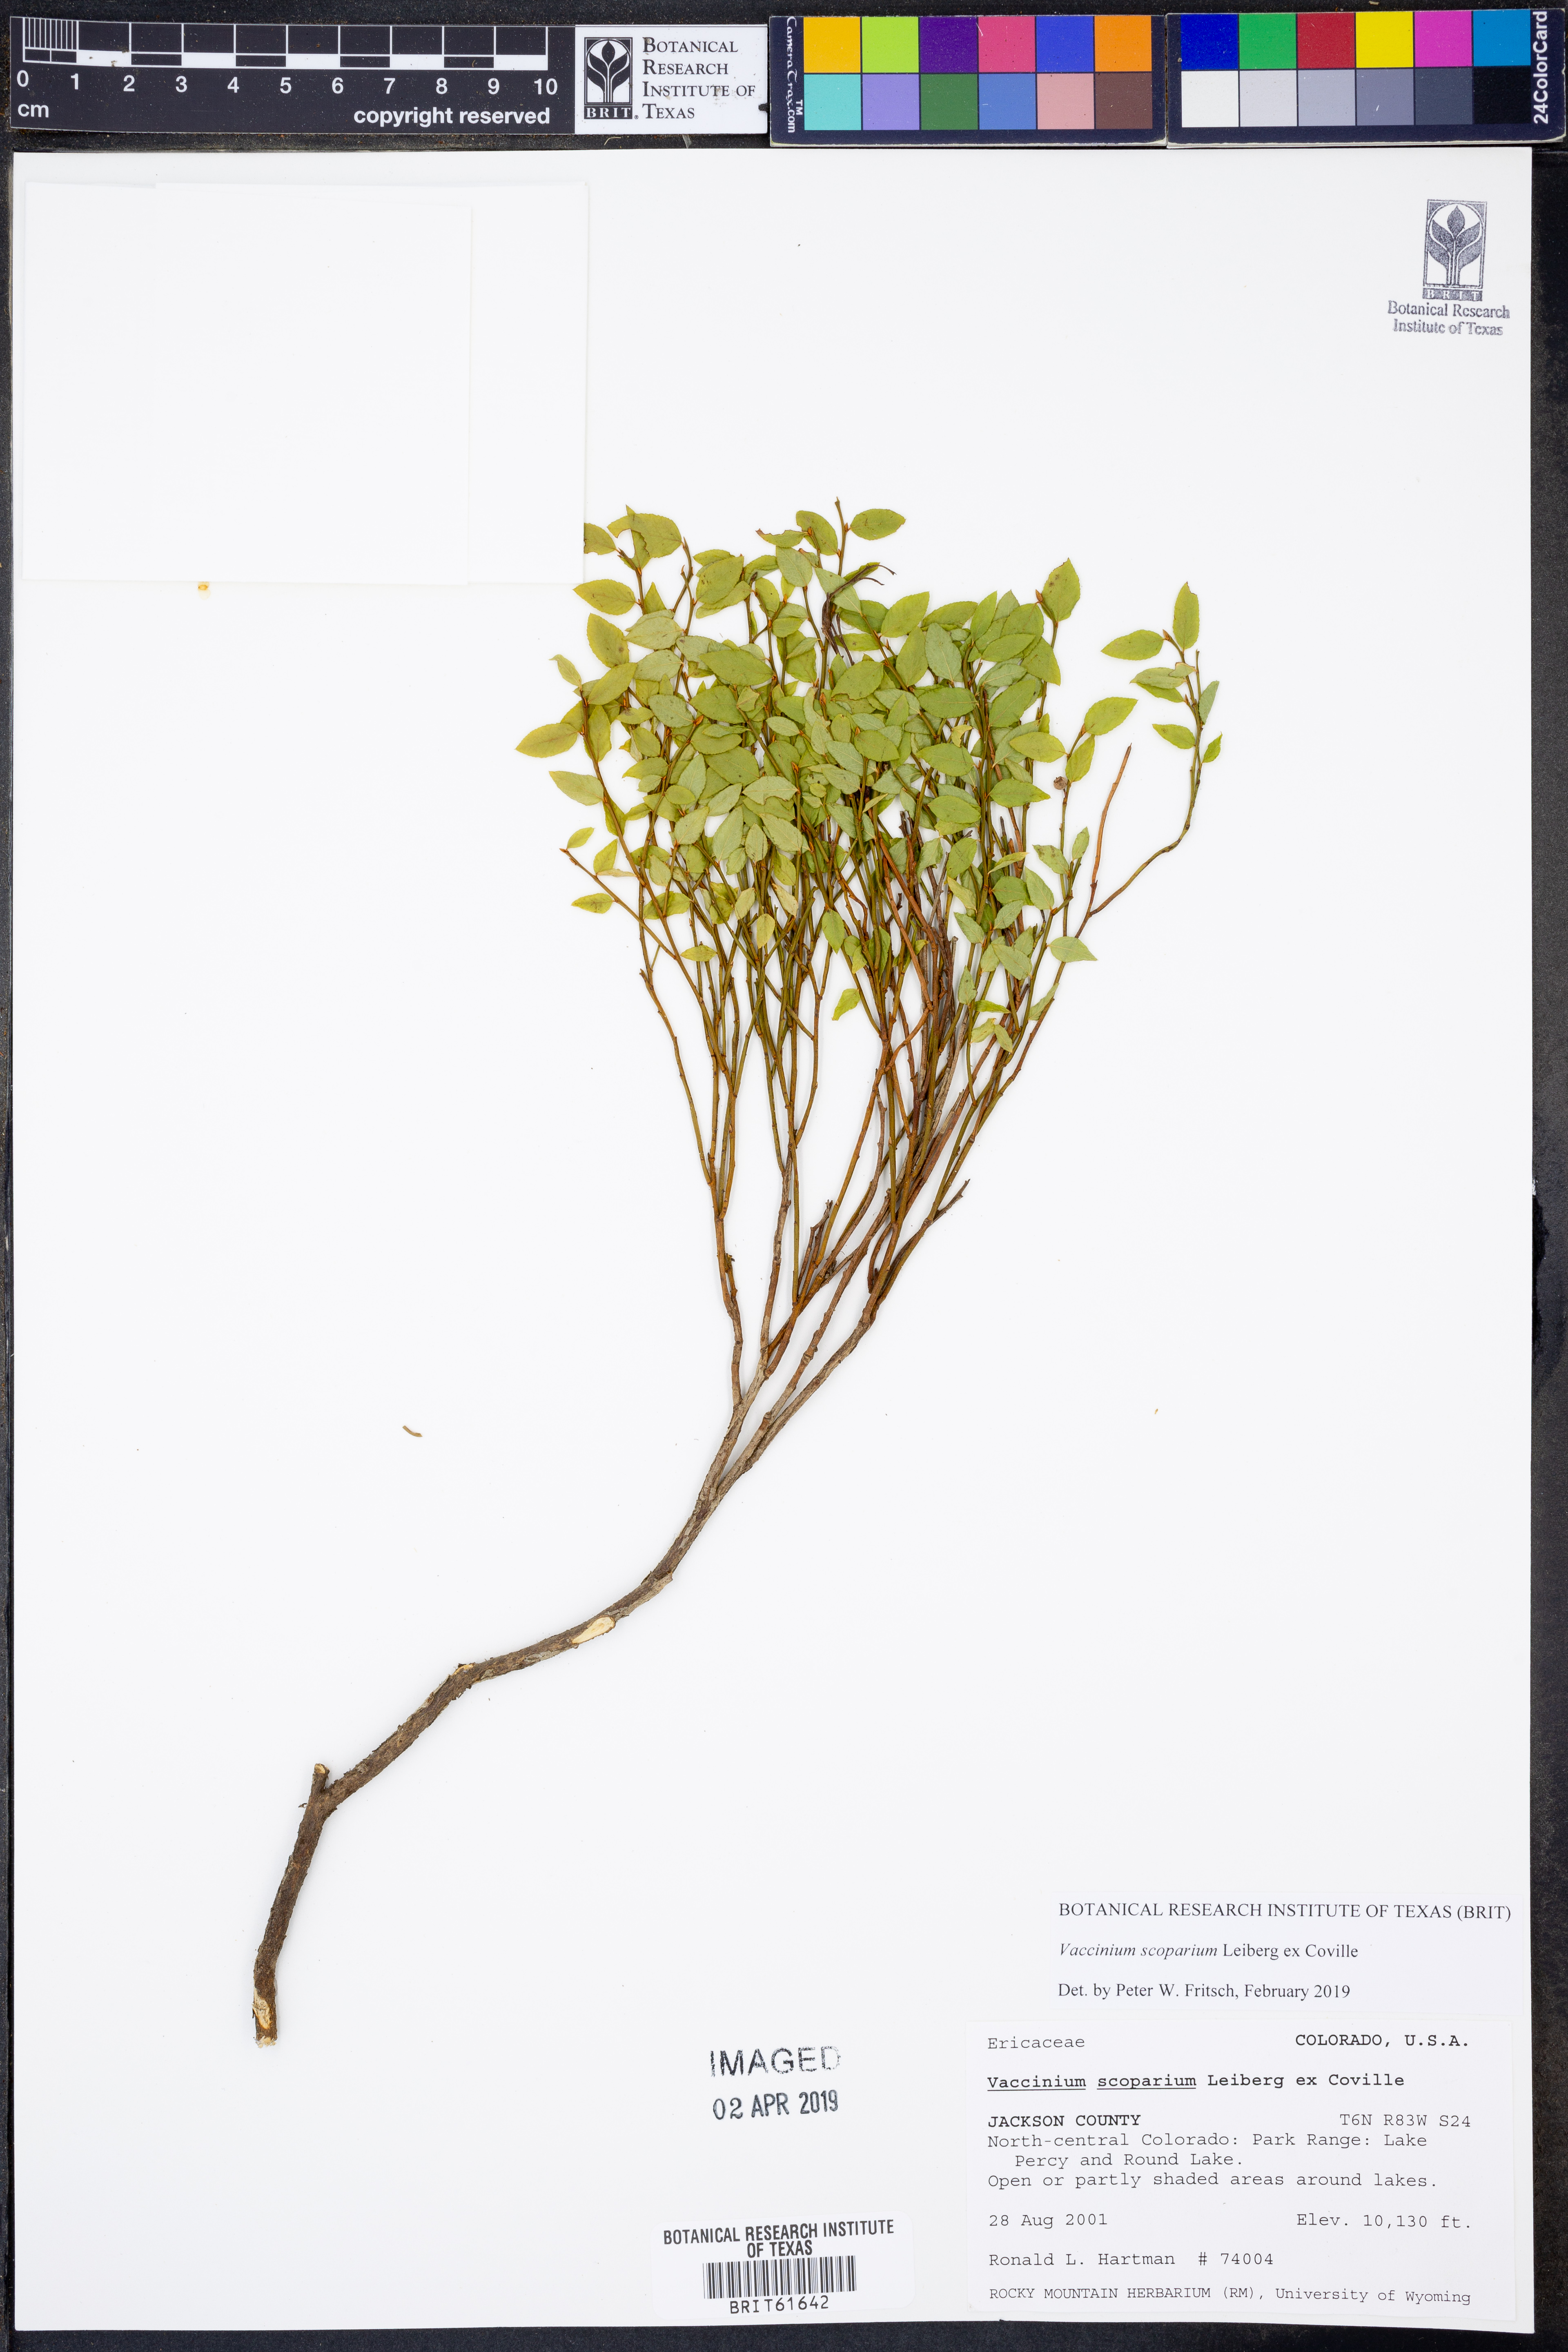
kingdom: Plantae
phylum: Tracheophyta
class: Magnoliopsida
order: Ericales
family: Ericaceae
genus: Vaccinium
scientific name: Vaccinium scoparium
